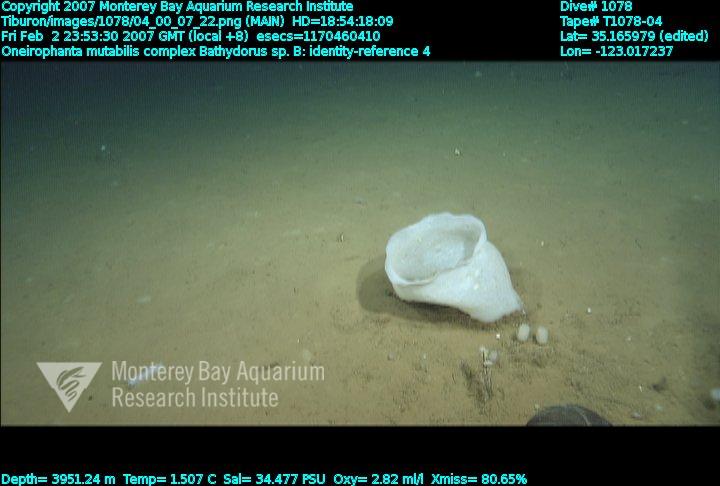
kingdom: Animalia
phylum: Porifera
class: Hexactinellida
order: Lyssacinosida
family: Rossellidae
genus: Bathydorus
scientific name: Bathydorus
